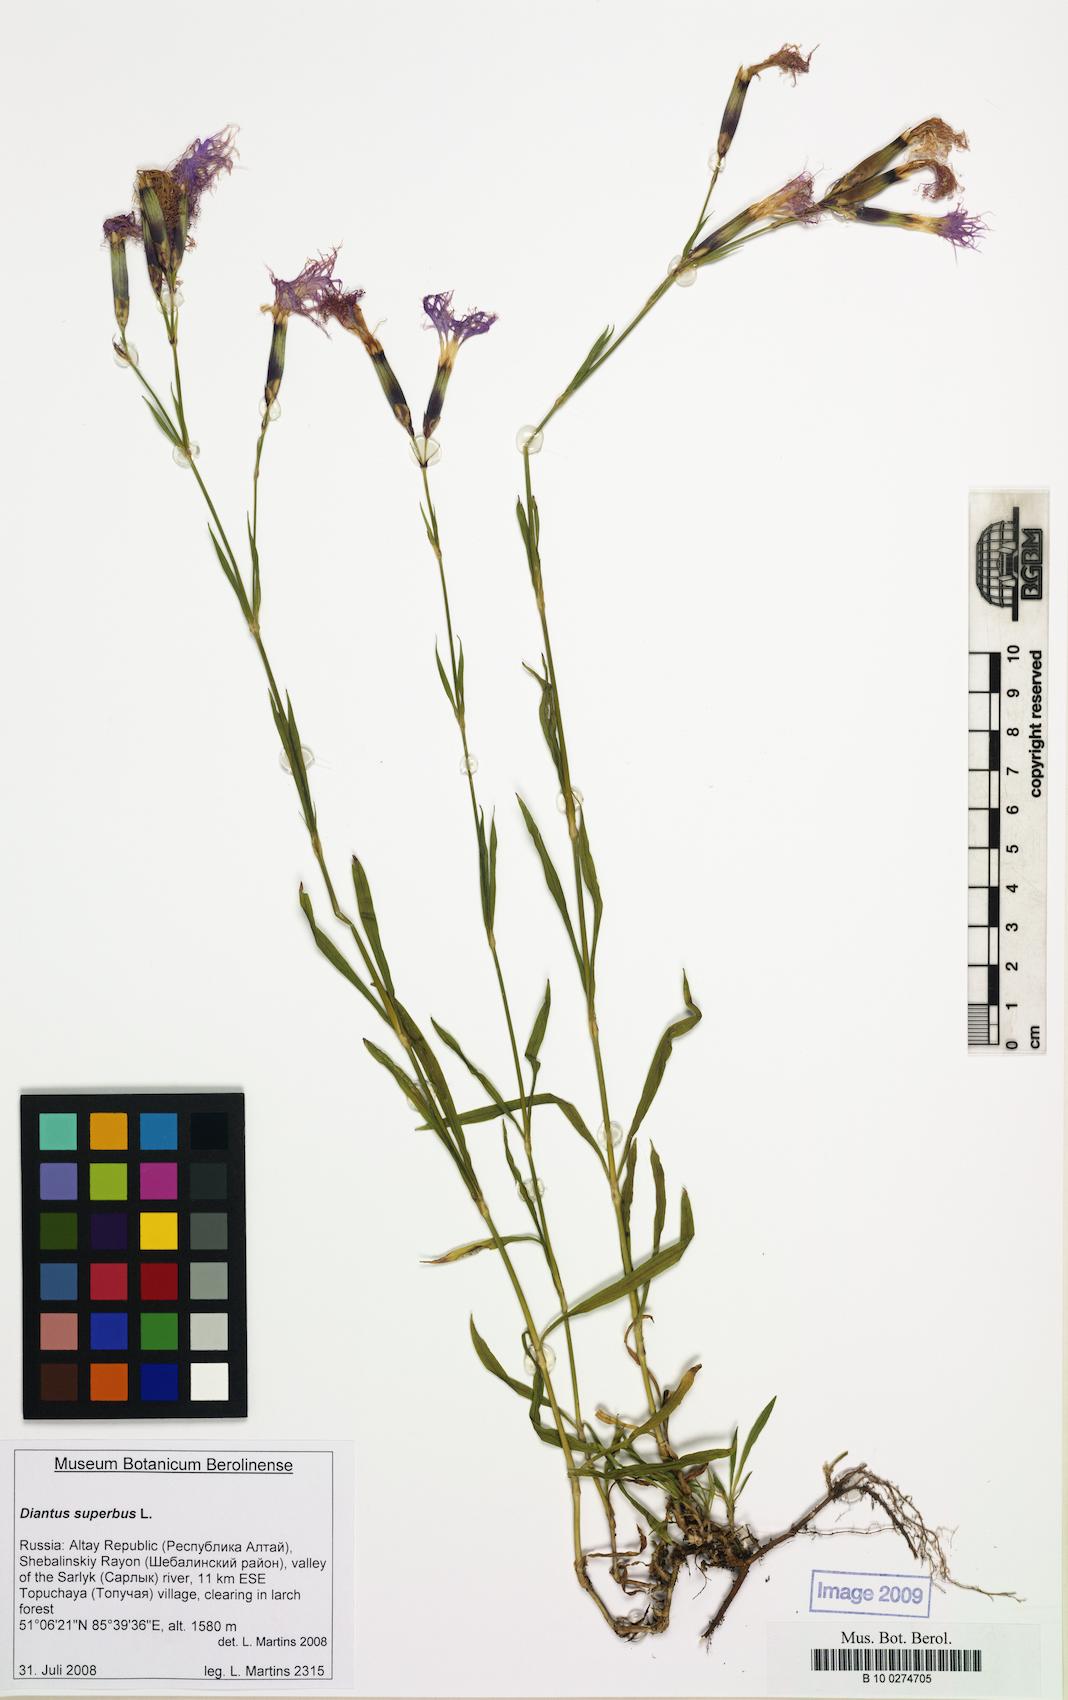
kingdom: Plantae
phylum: Tracheophyta
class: Magnoliopsida
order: Caryophyllales
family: Caryophyllaceae
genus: Dianthus
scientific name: Dianthus superbus
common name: Fringed pink
